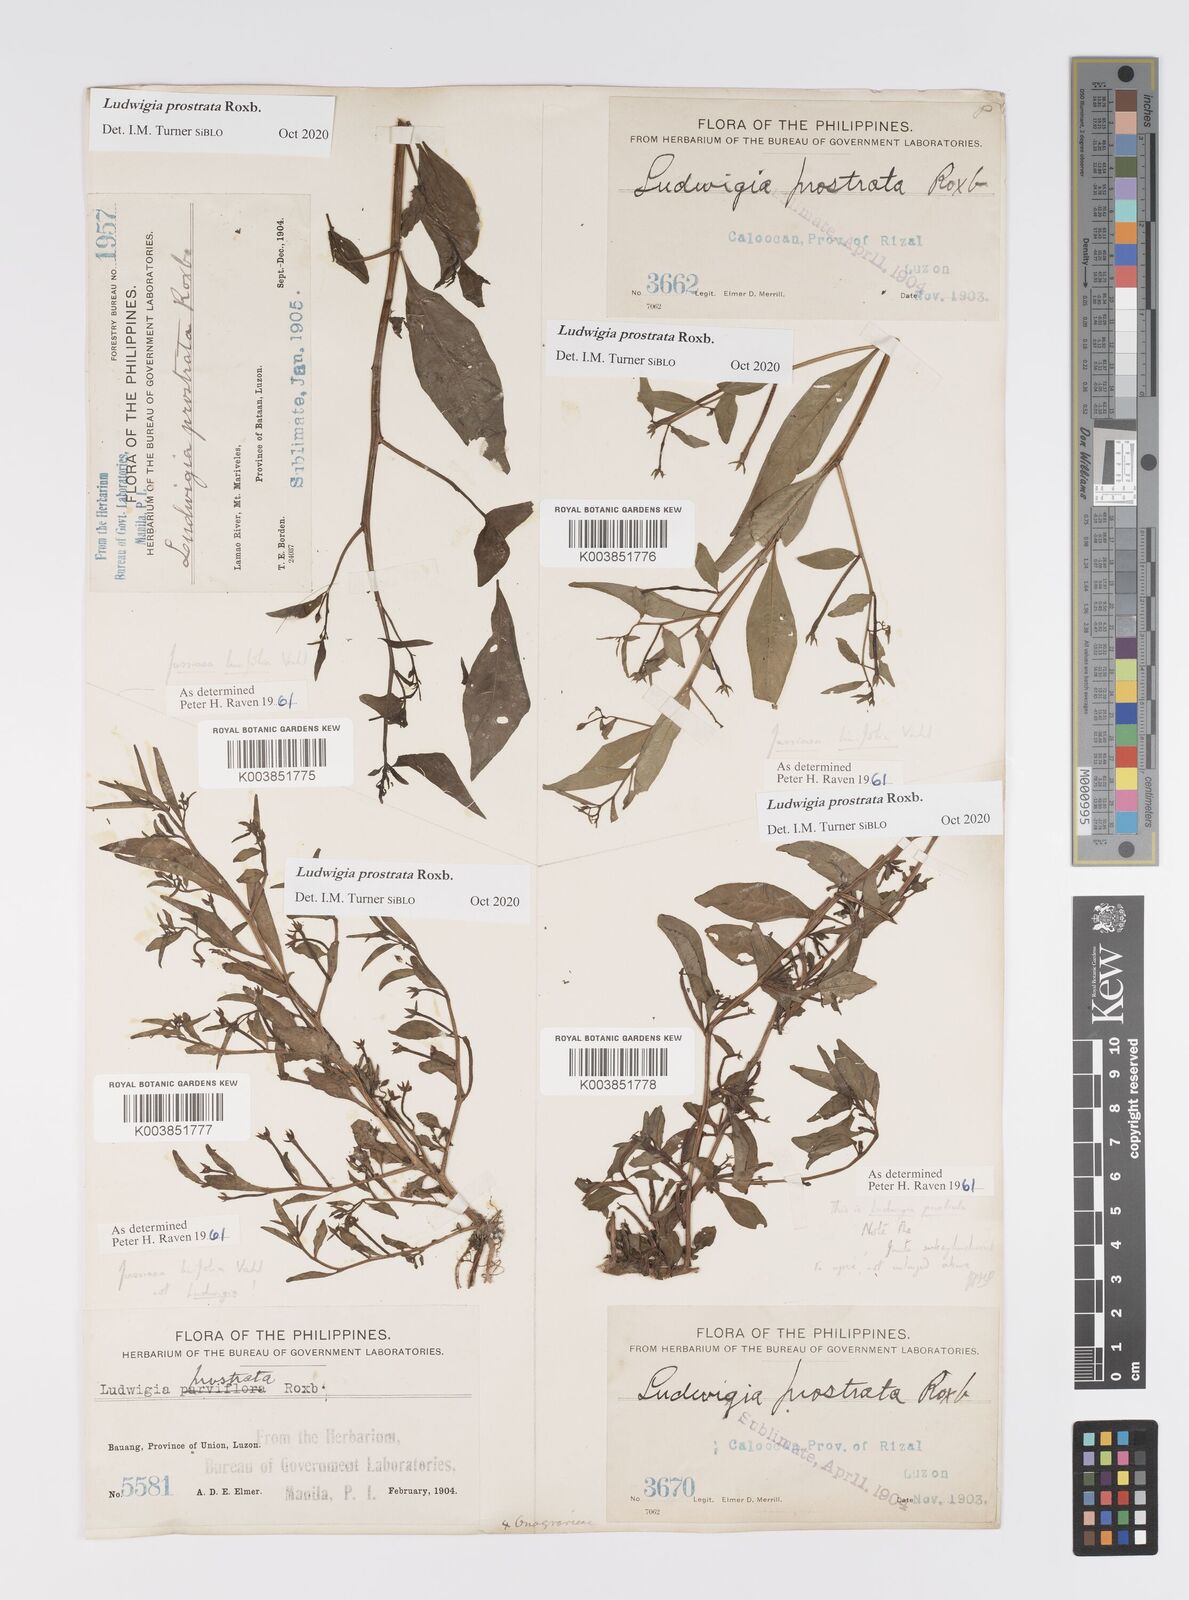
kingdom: Plantae
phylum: Tracheophyta
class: Magnoliopsida
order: Myrtales
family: Onagraceae
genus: Ludwigia
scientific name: Ludwigia prostrata
